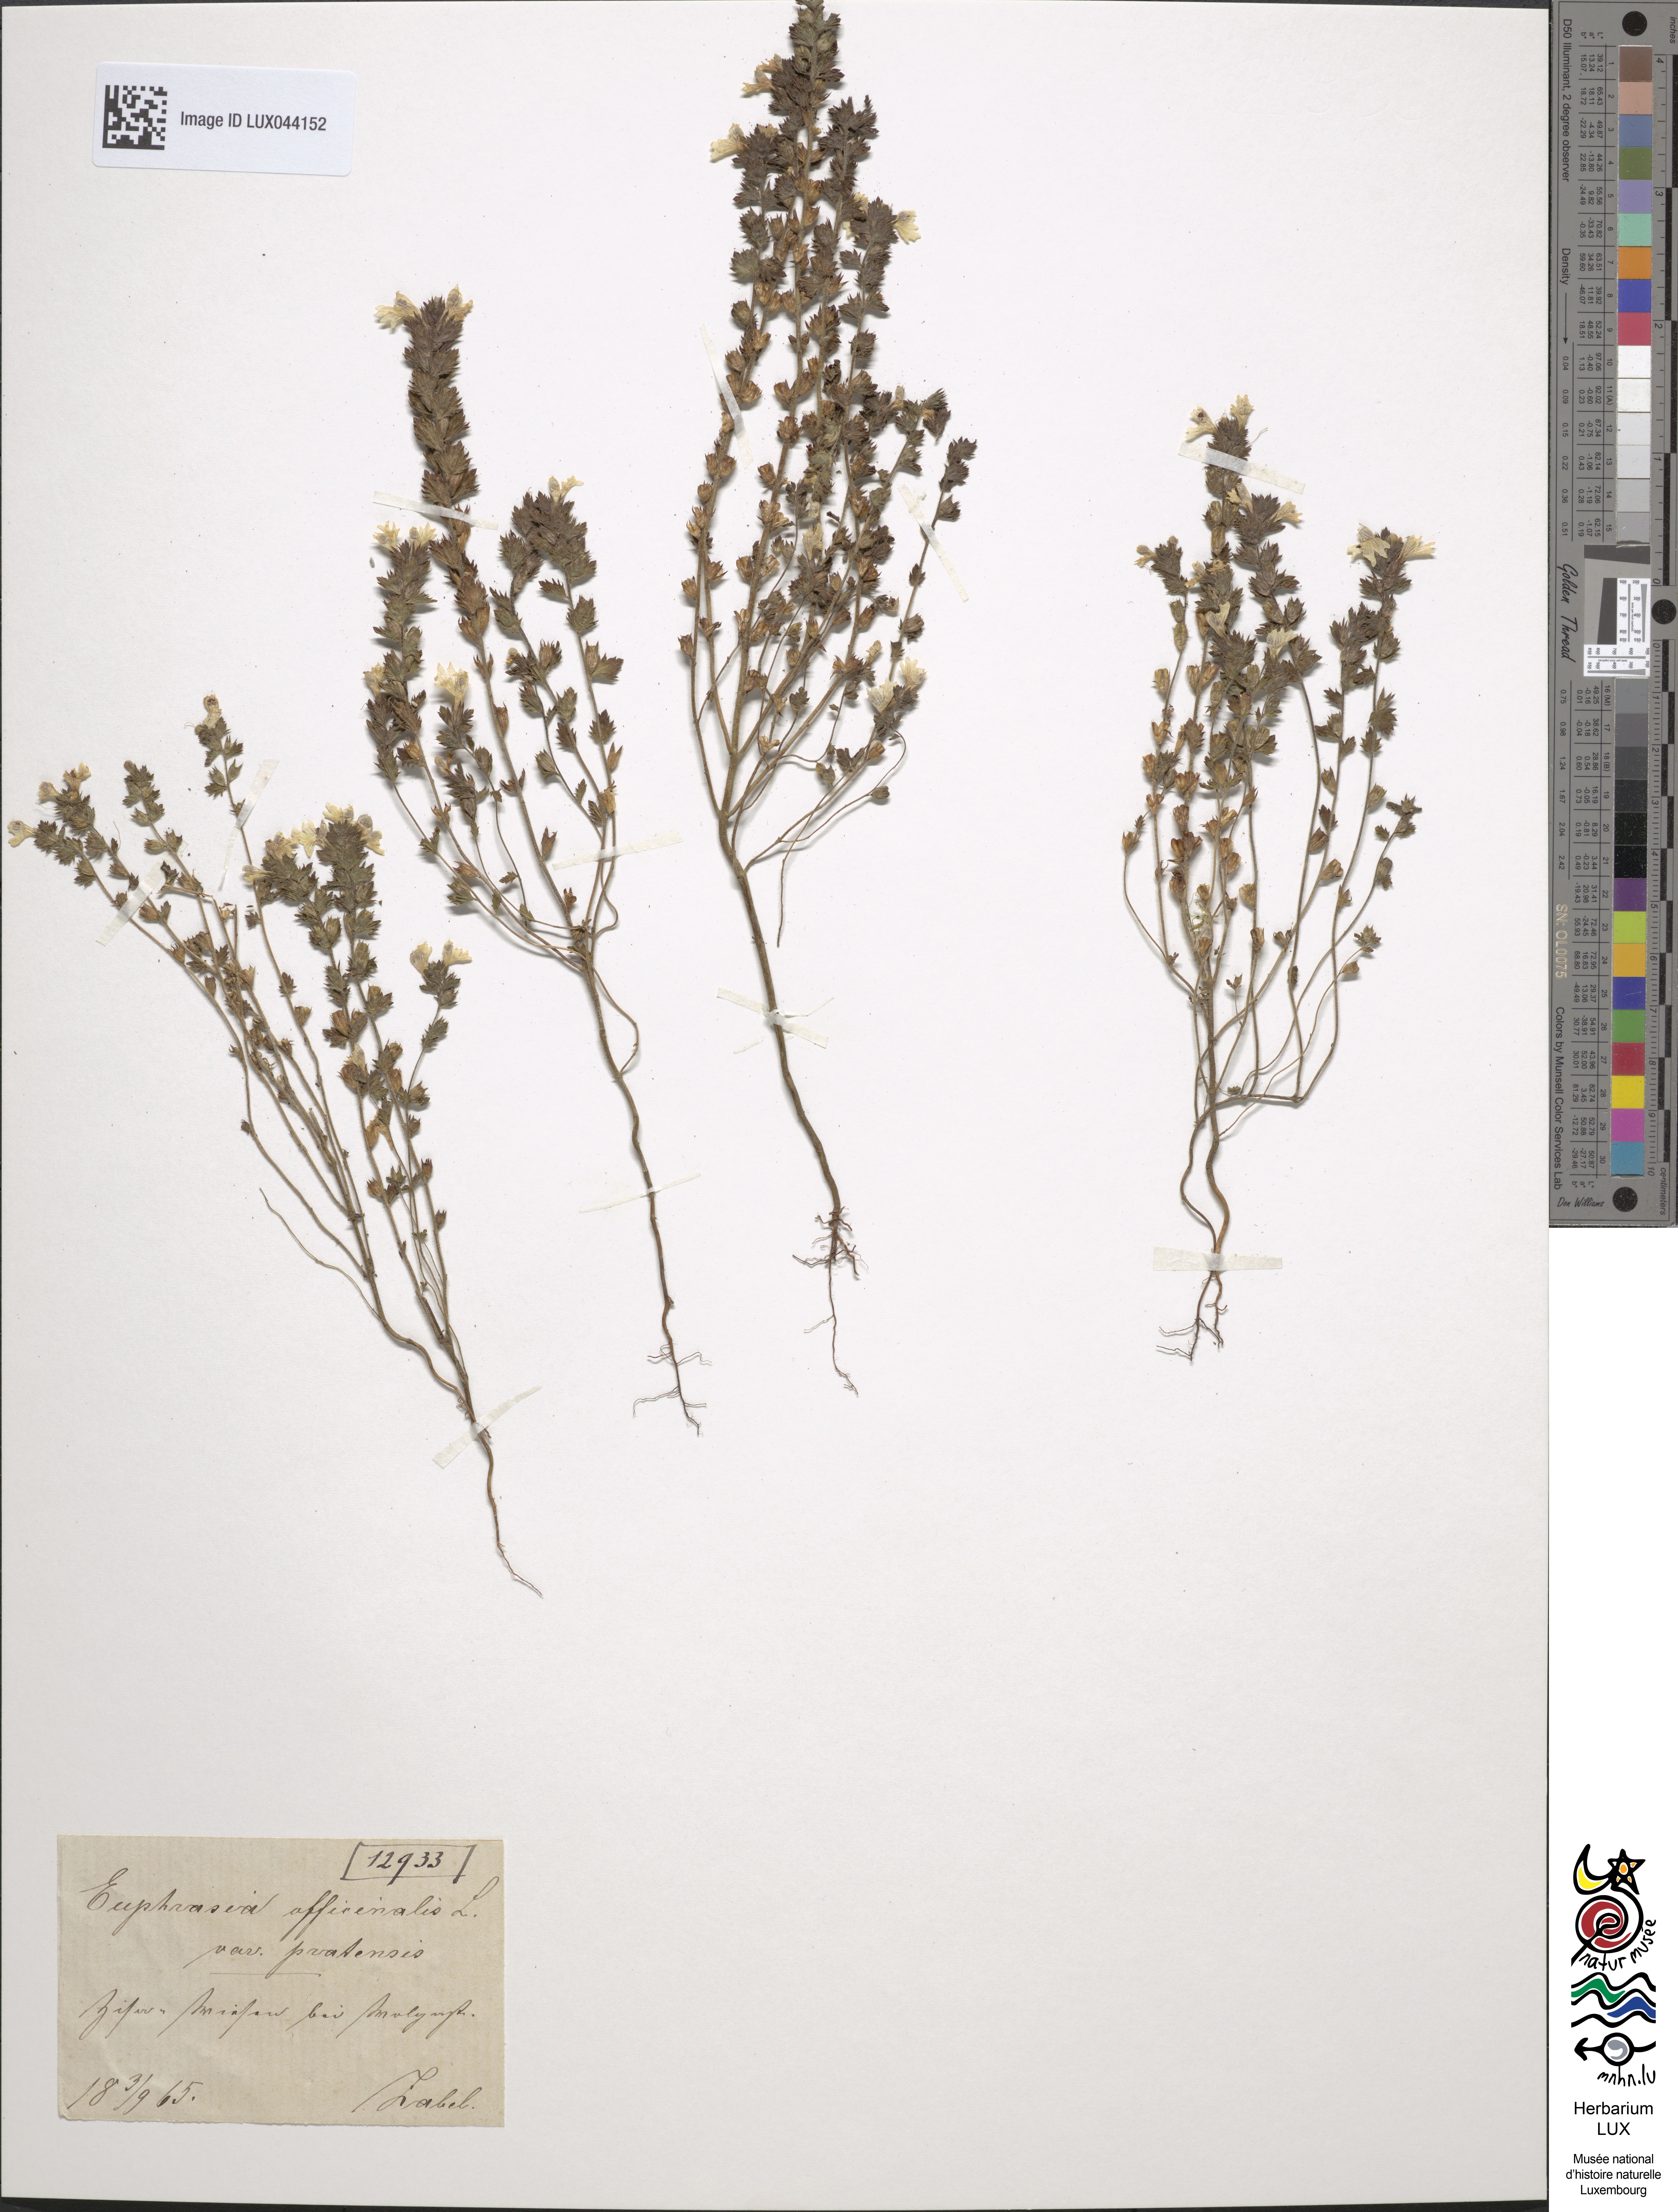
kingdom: Plantae
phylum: Tracheophyta
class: Magnoliopsida
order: Lamiales
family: Orobanchaceae
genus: Euphrasia
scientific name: Euphrasia officinalis
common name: Eyebright
